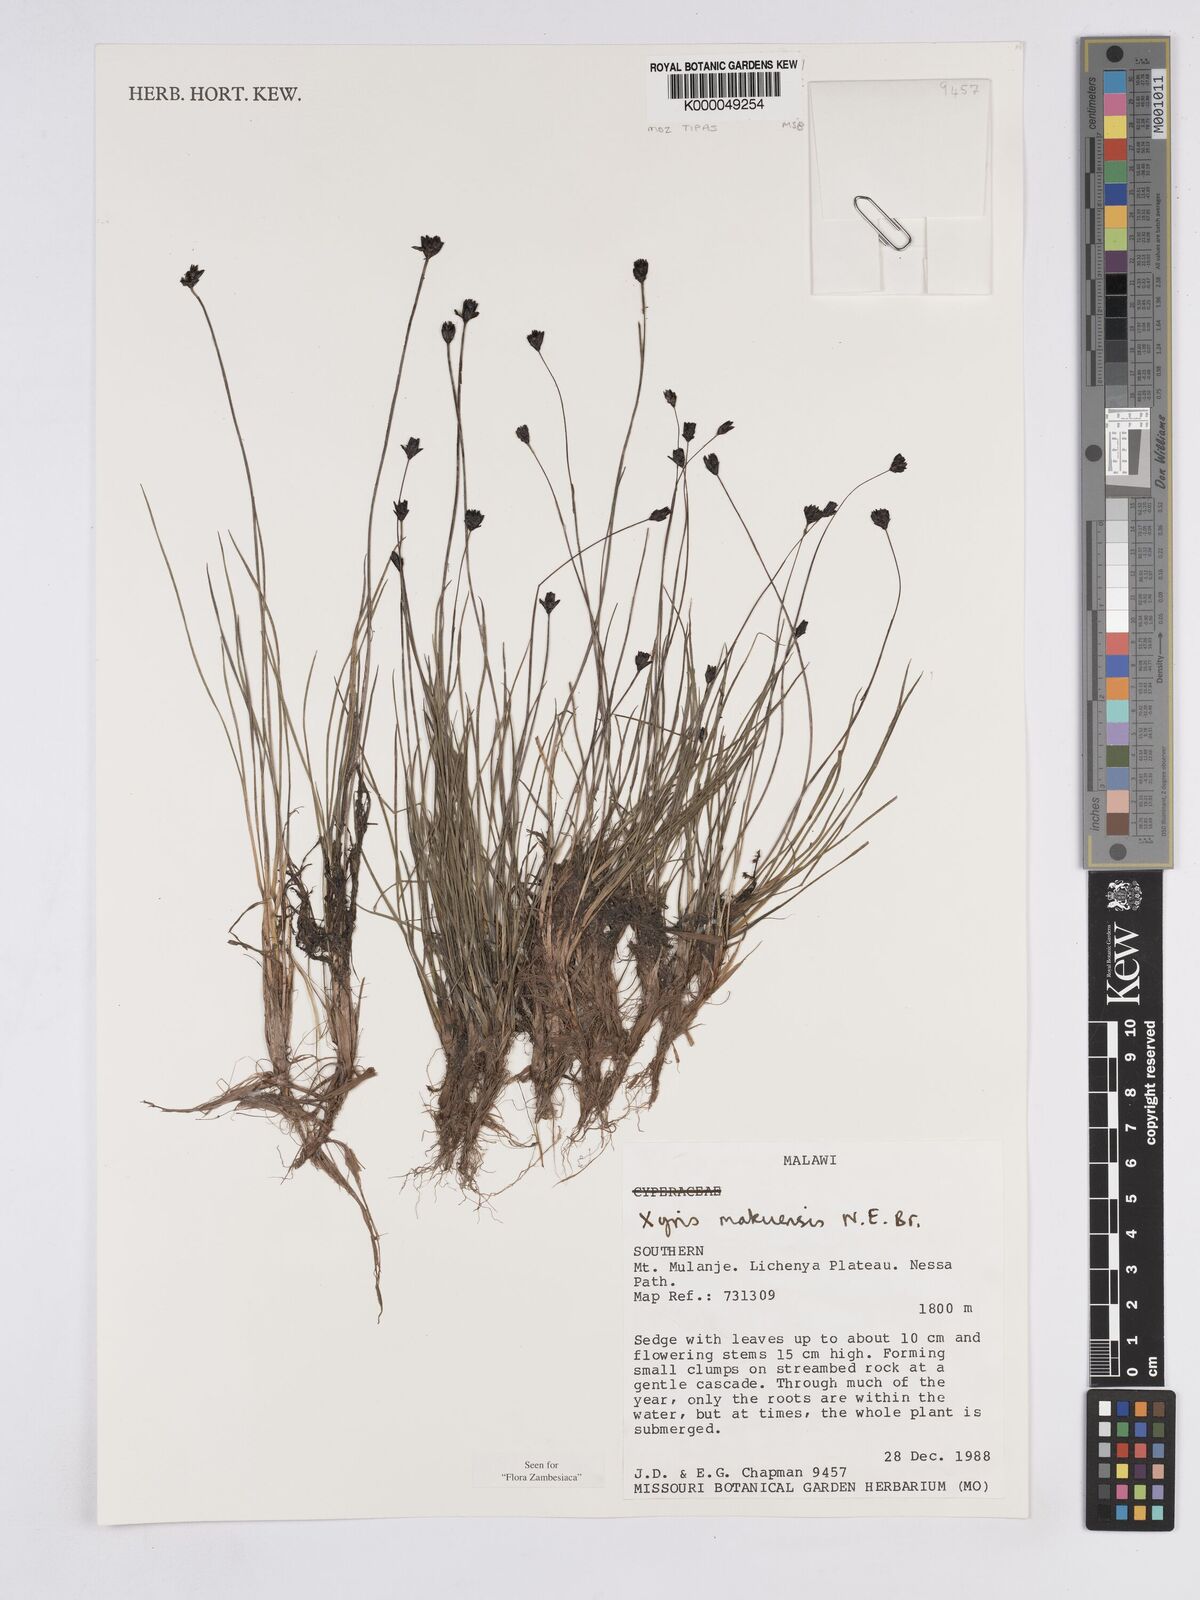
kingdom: Plantae
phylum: Tracheophyta
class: Liliopsida
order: Poales
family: Xyridaceae
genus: Xyris
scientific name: Xyris makuensis
